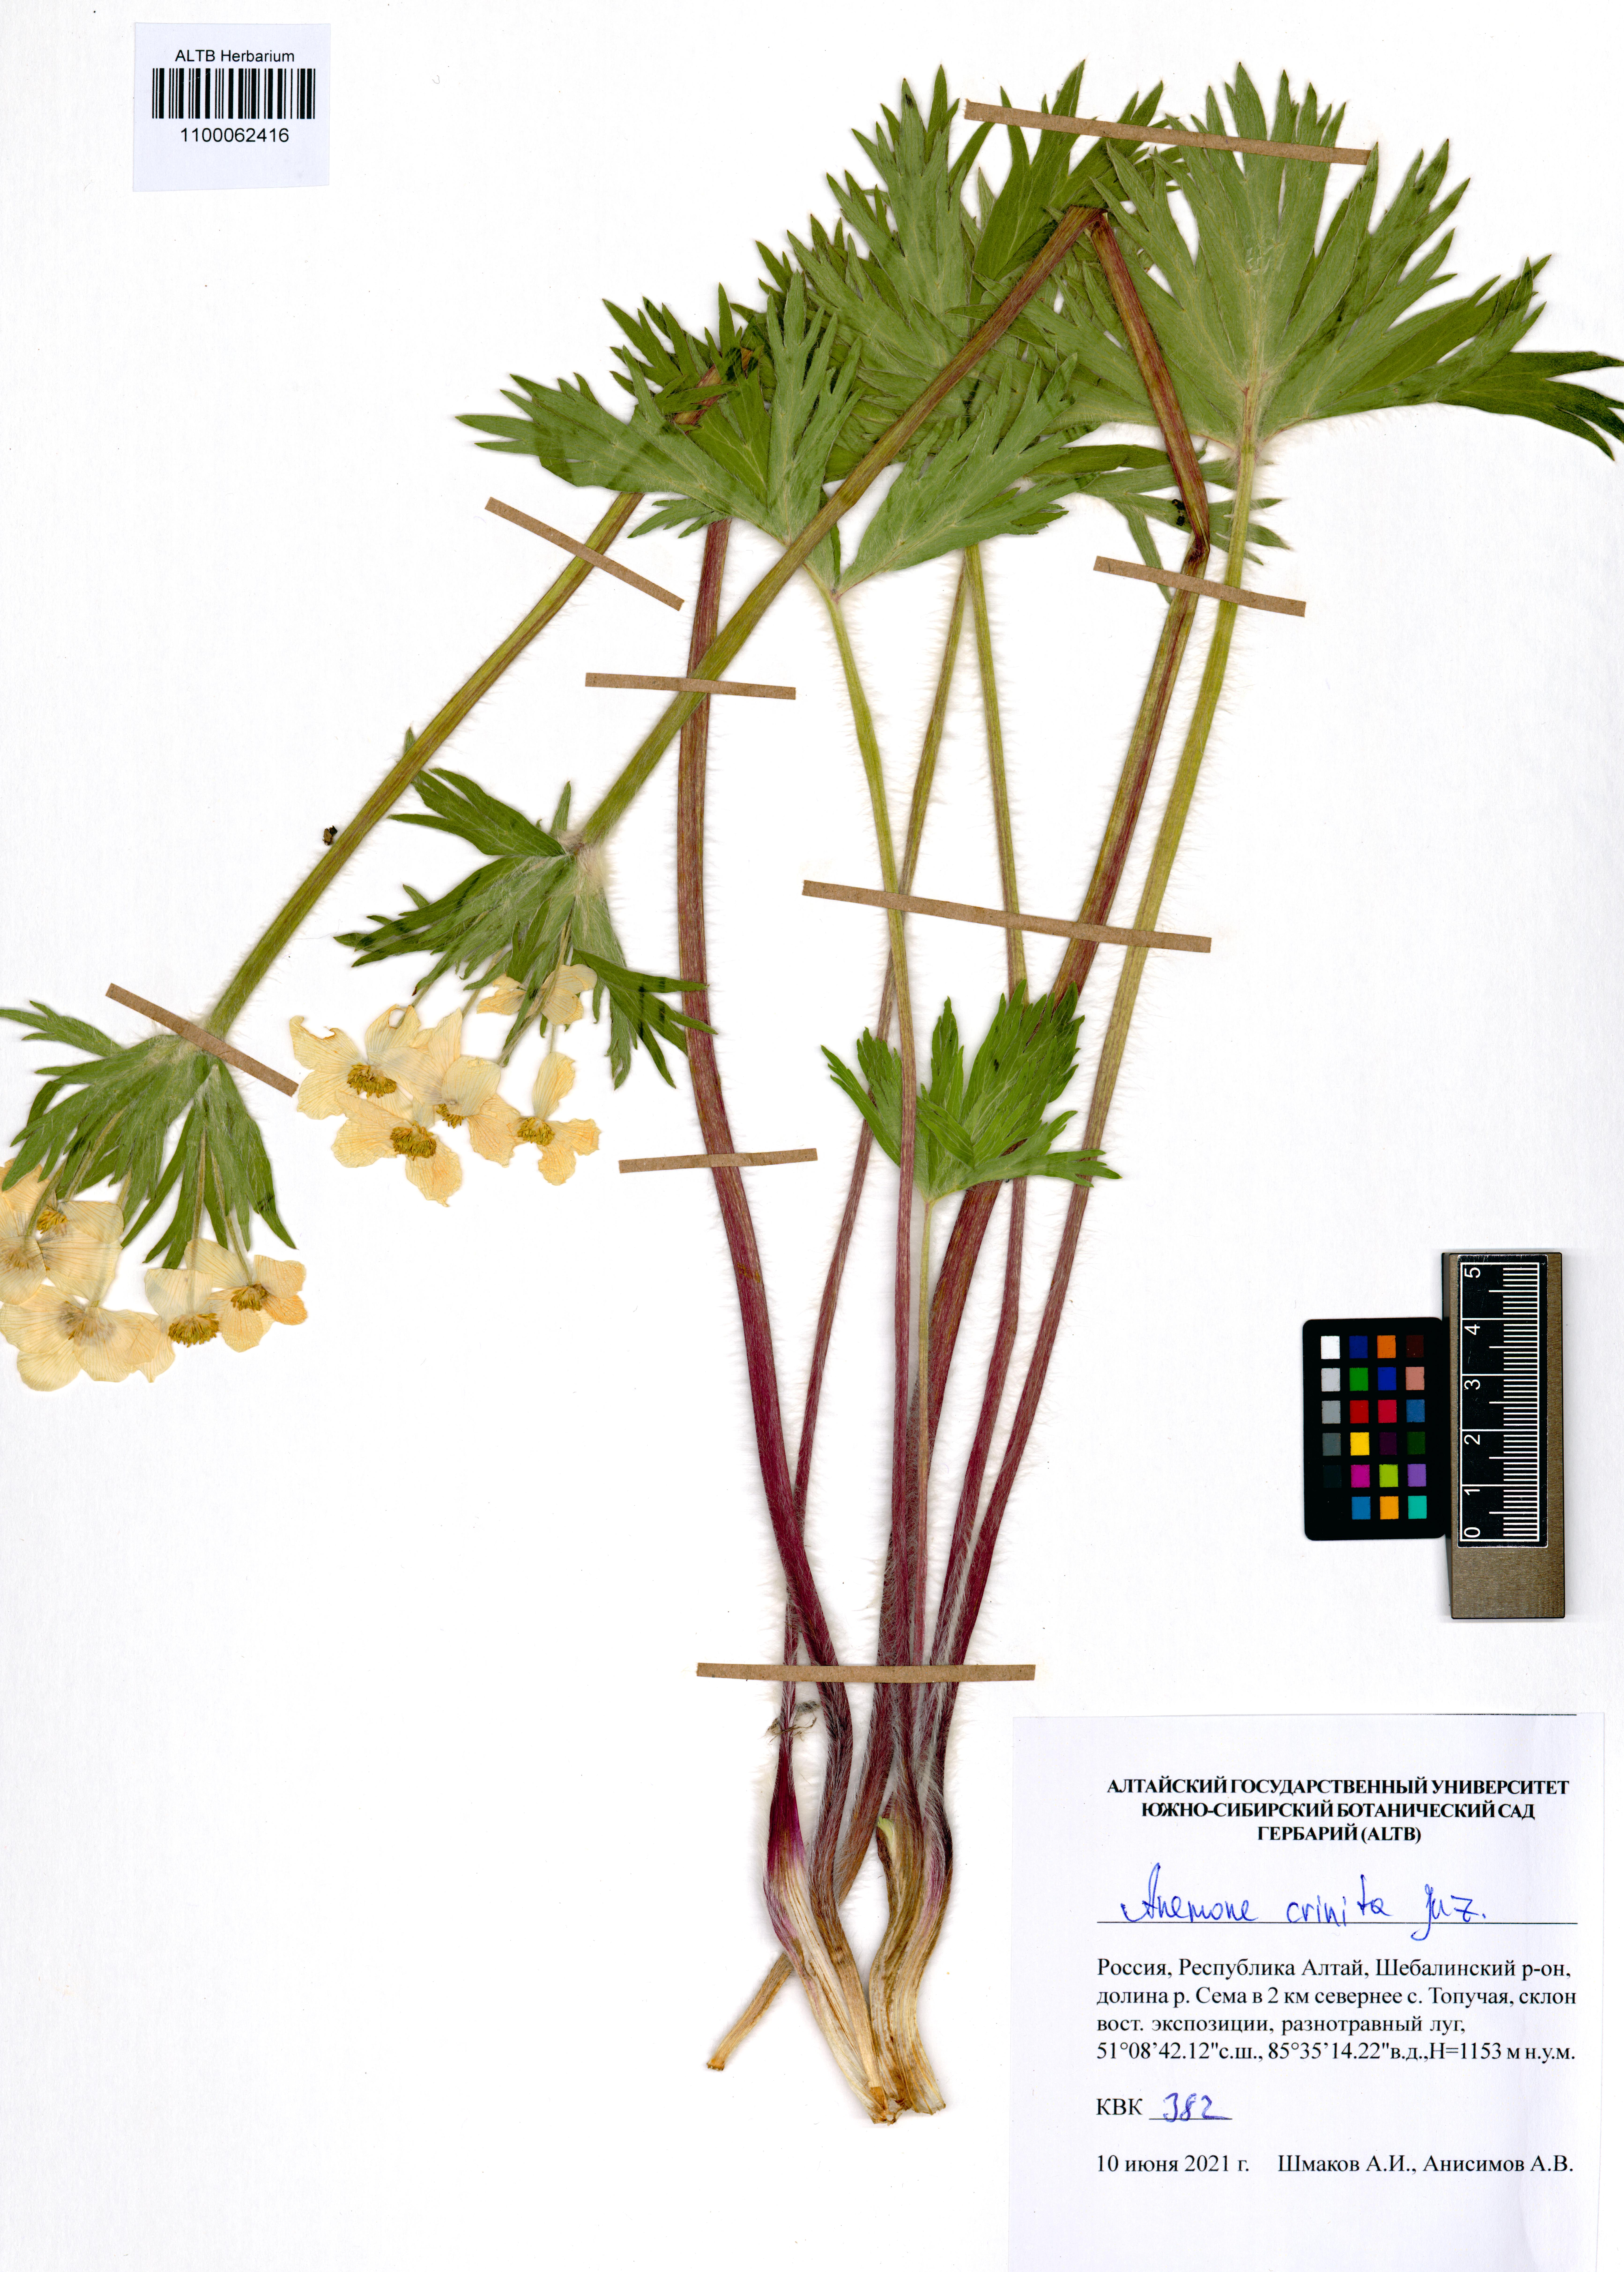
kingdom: Plantae
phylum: Tracheophyta
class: Magnoliopsida
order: Ranunculales
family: Ranunculaceae
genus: Anemonastrum
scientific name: Anemonastrum narcissiflorum
